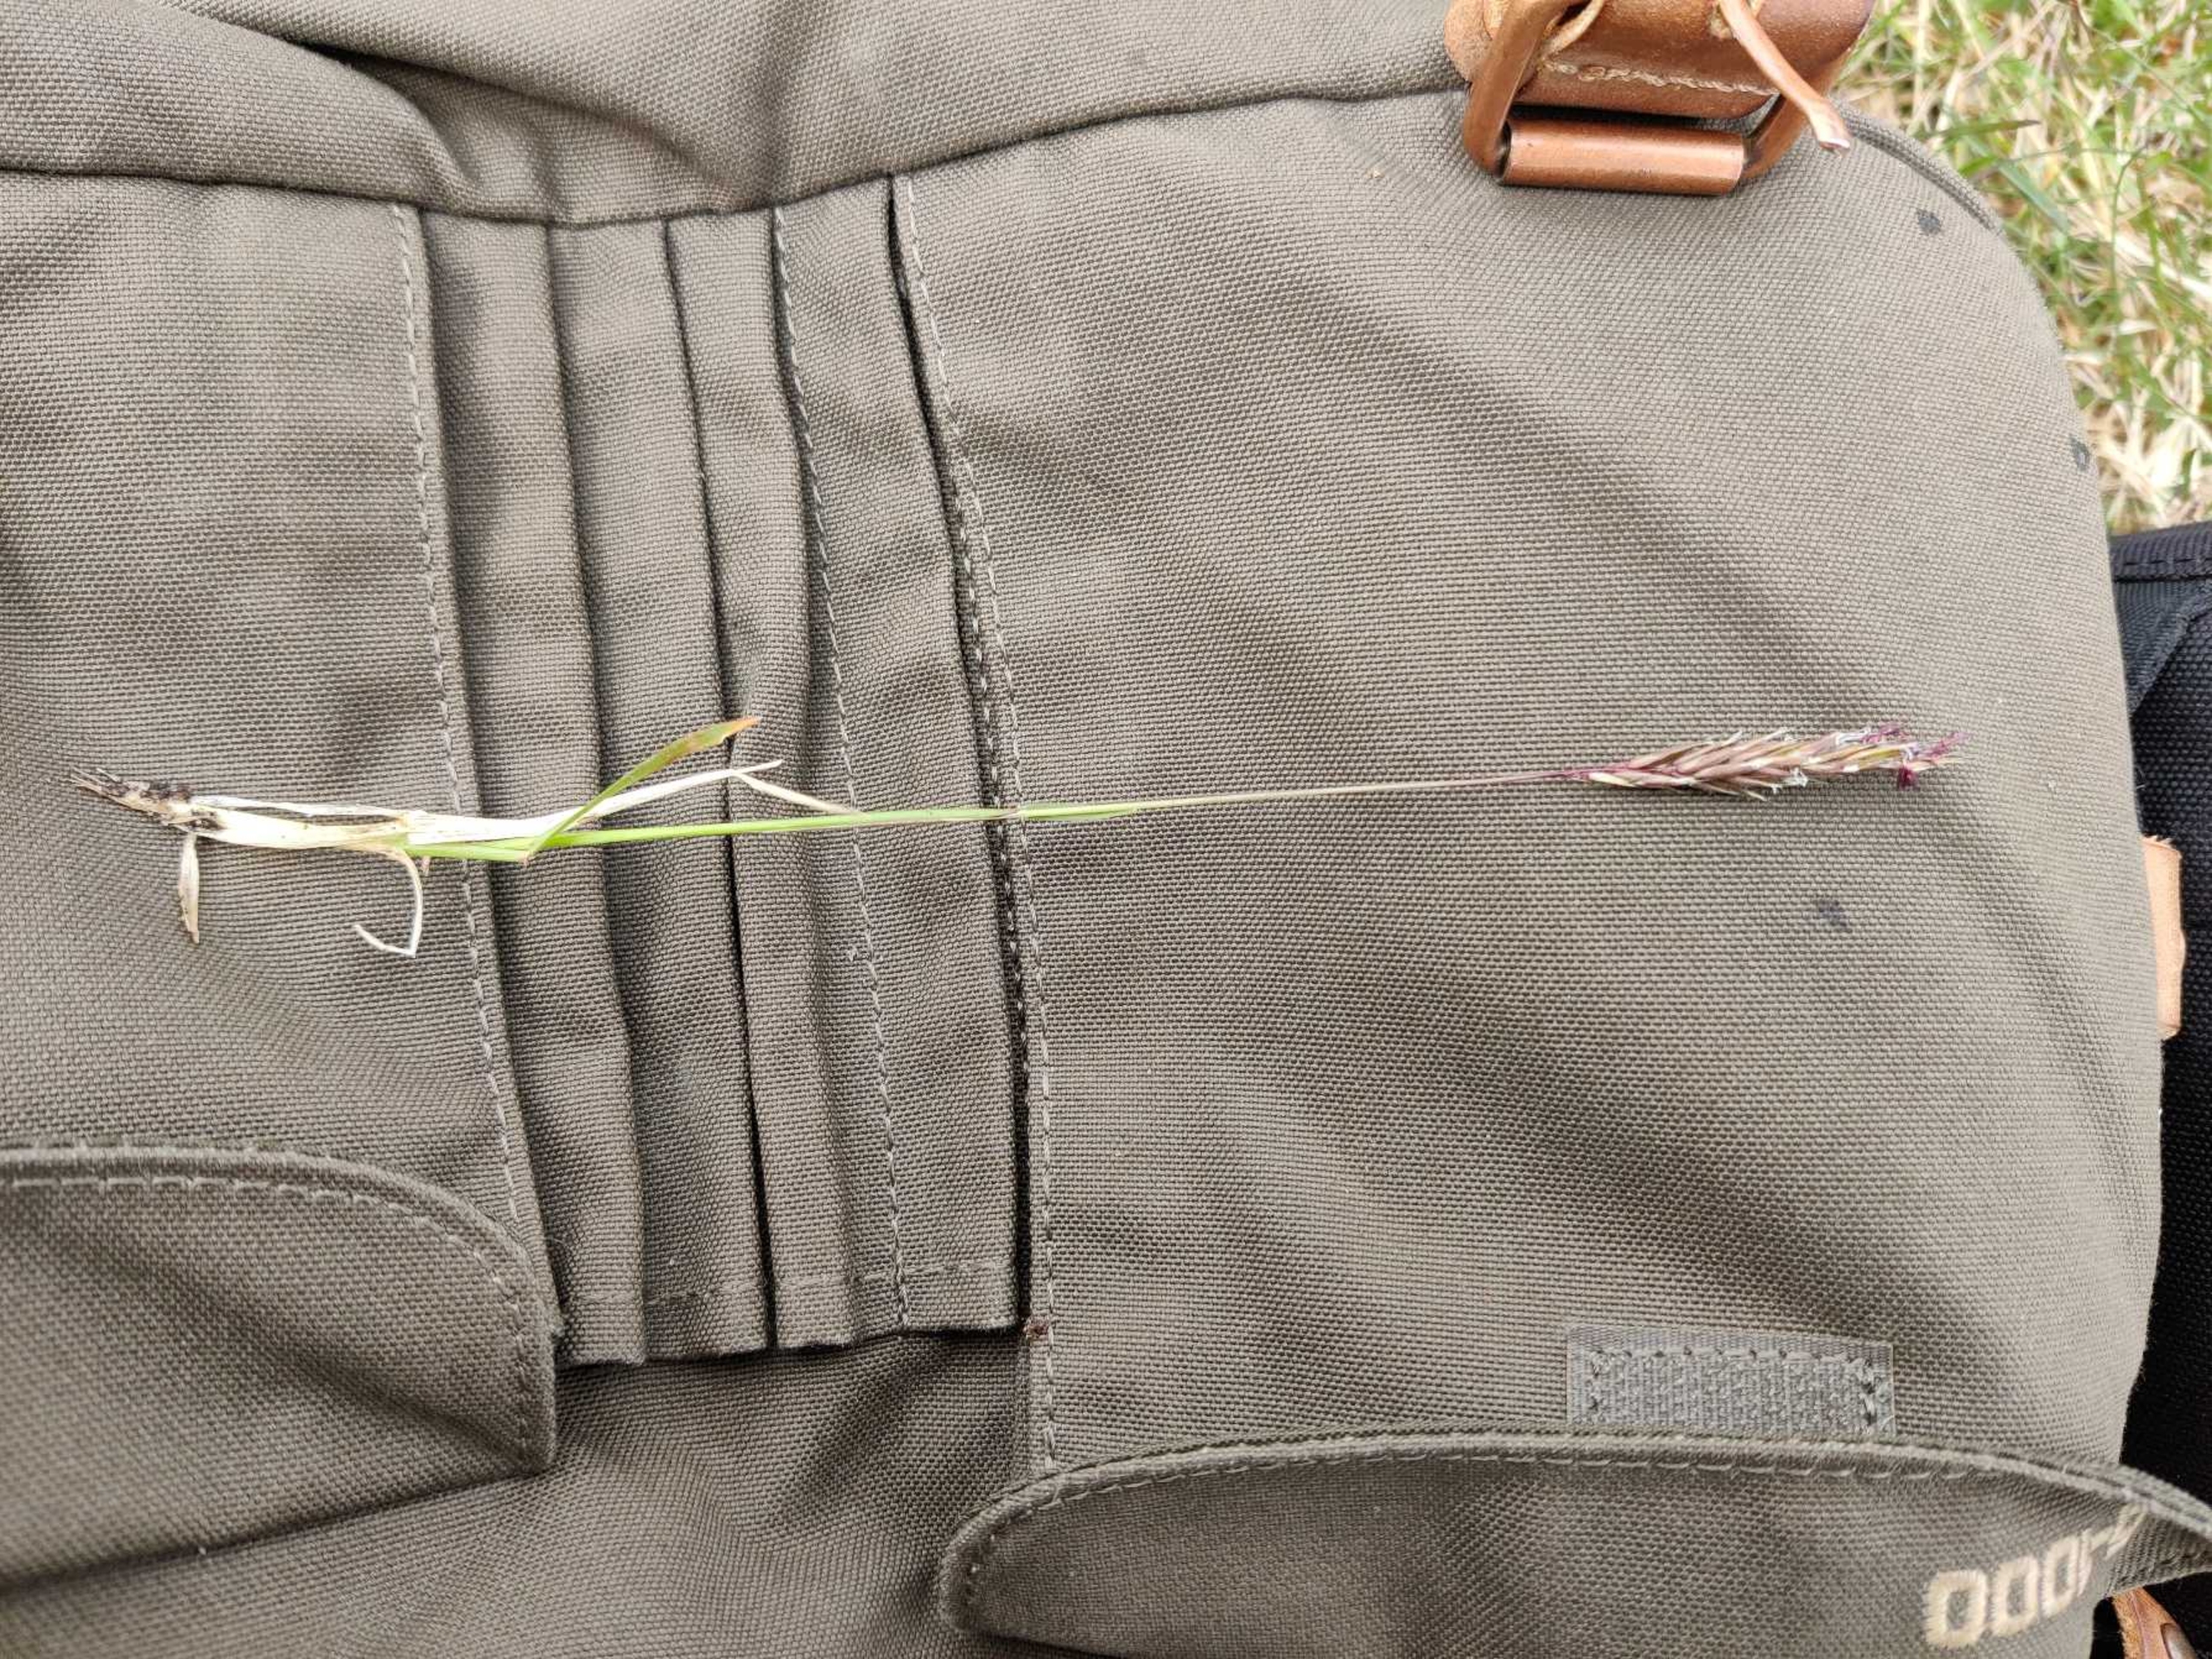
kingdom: Plantae
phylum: Tracheophyta
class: Liliopsida
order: Poales
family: Poaceae
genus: Anthoxanthum
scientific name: Anthoxanthum odoratum
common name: Vellugtende gulaks
